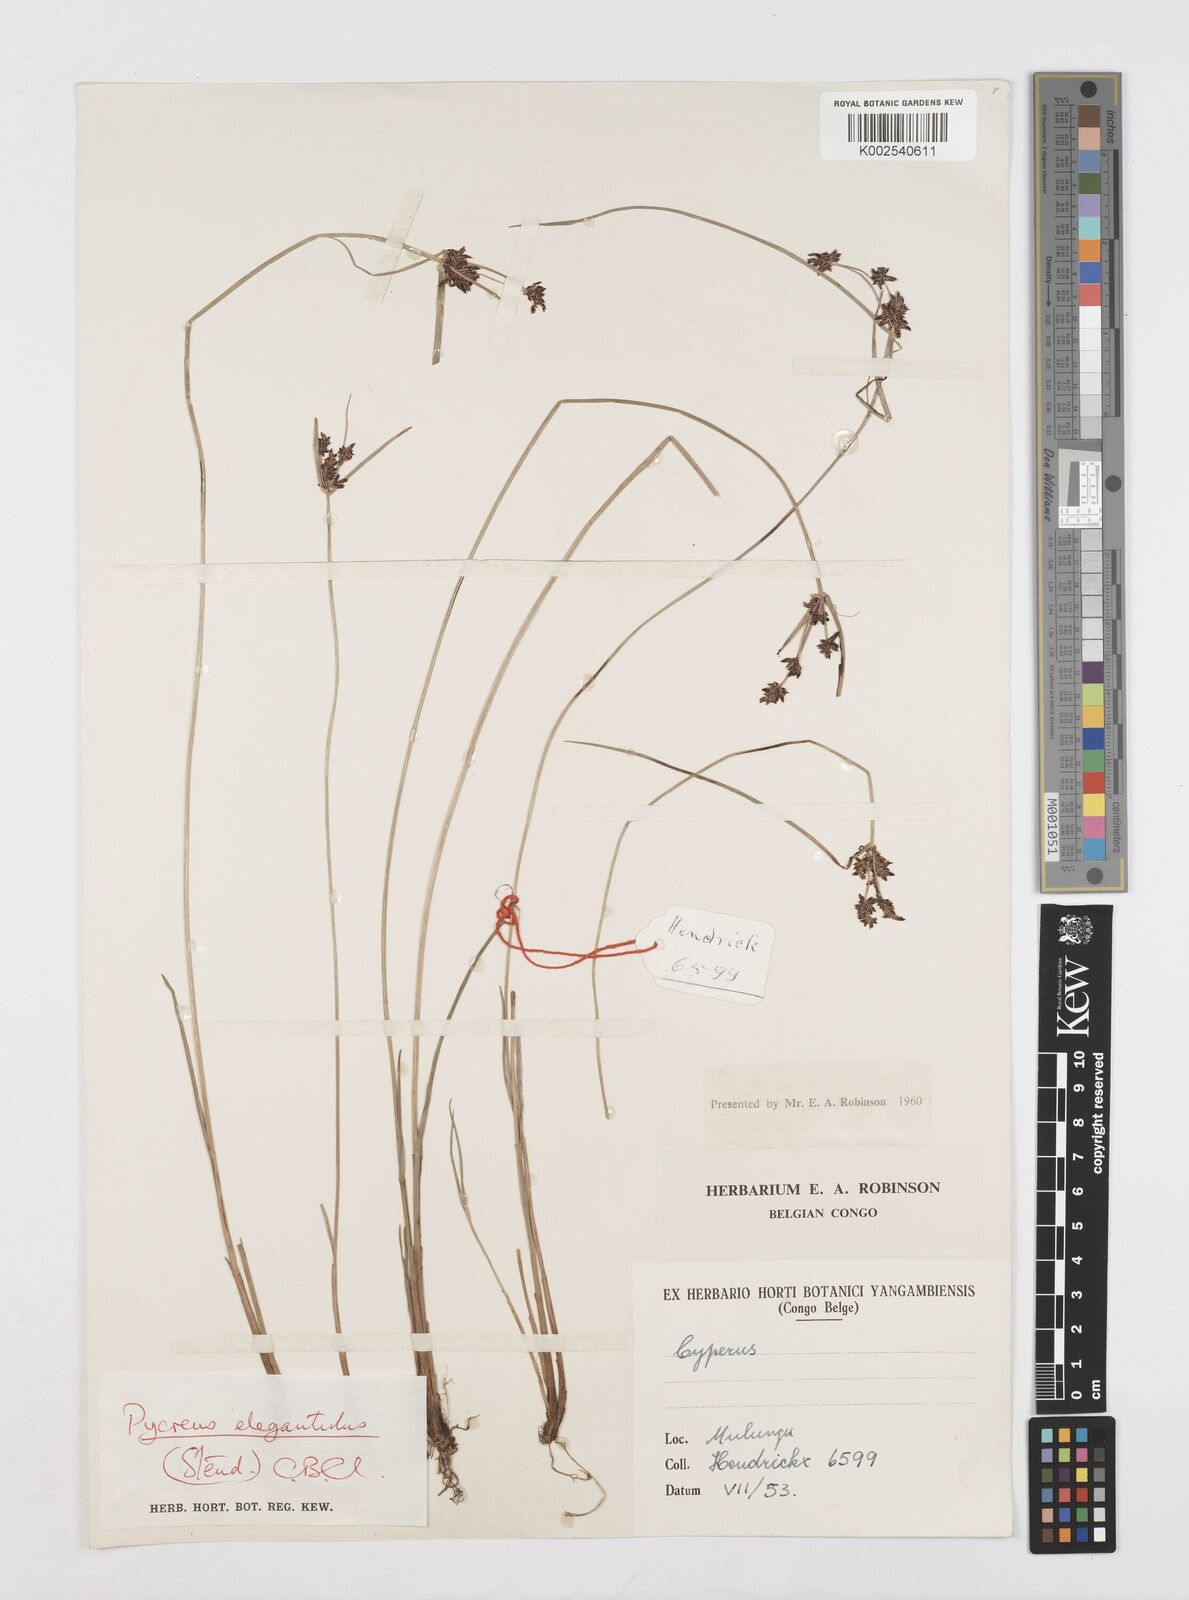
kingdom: Plantae
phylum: Tracheophyta
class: Liliopsida
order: Poales
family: Cyperaceae
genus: Cyperus
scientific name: Cyperus elegantulus
